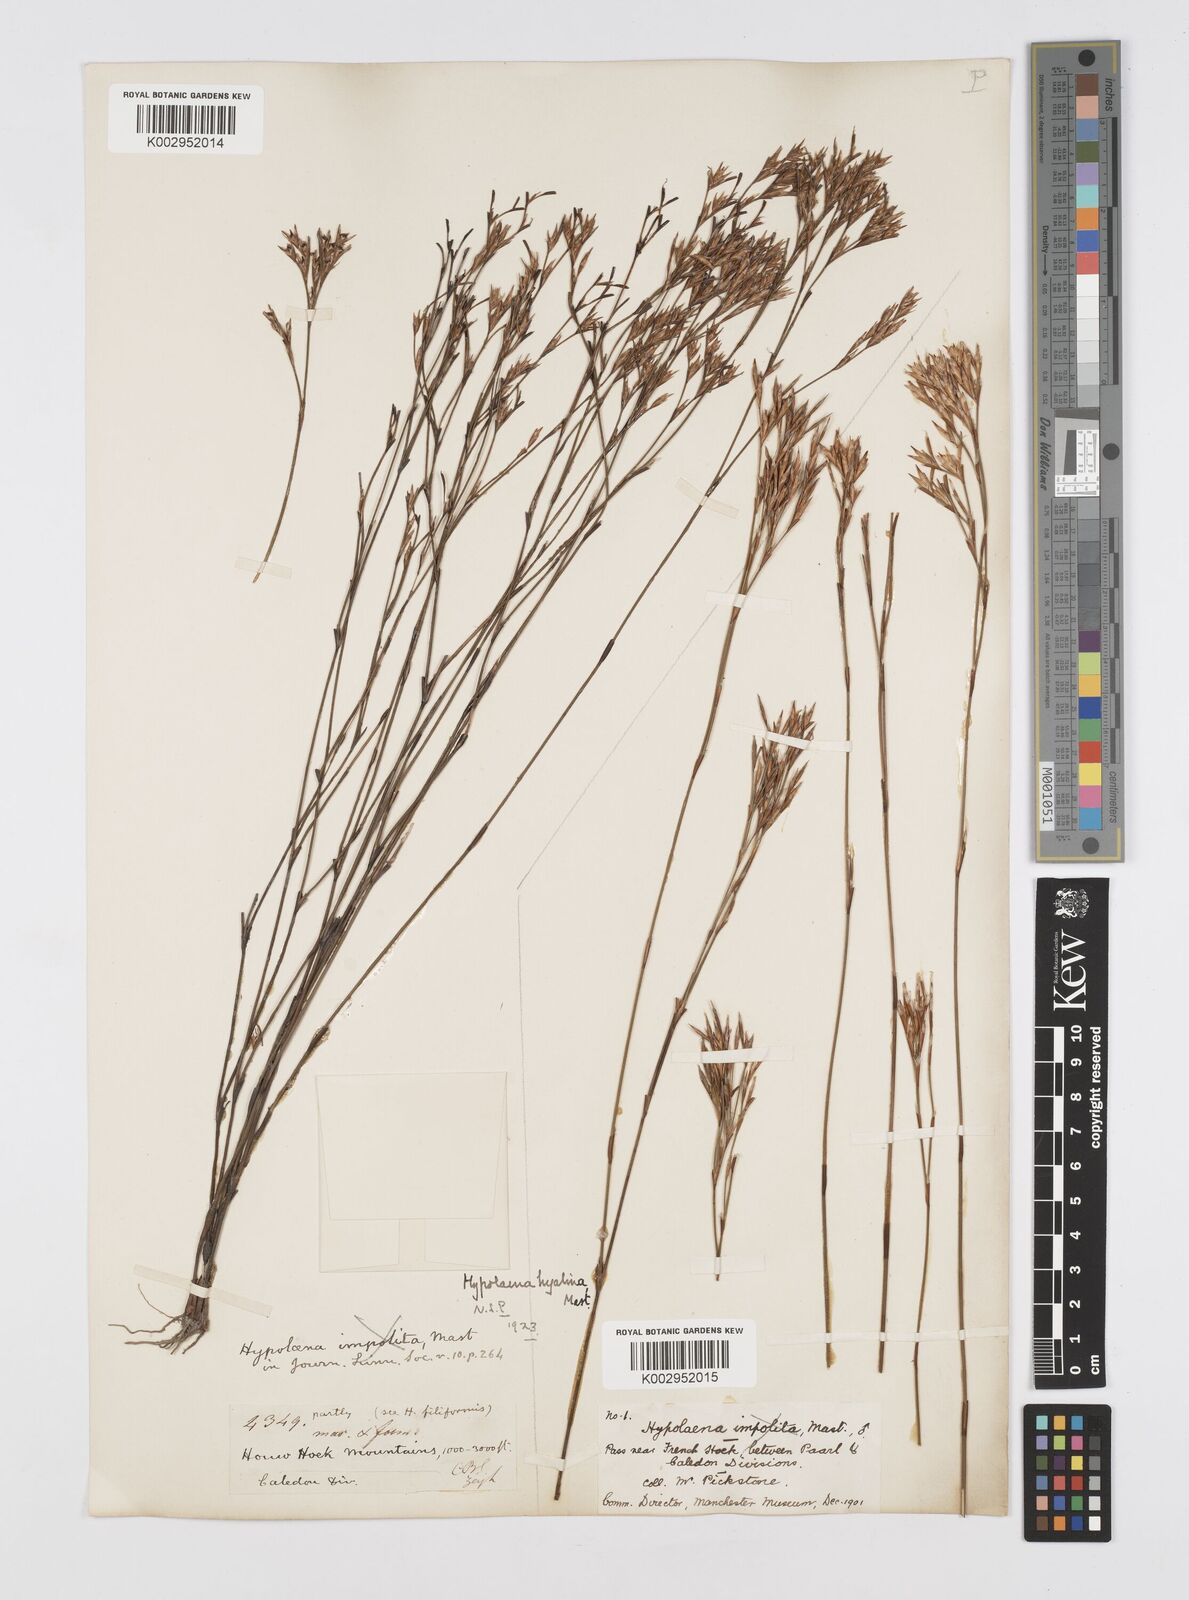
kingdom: Plantae
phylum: Tracheophyta
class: Liliopsida
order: Poales
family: Restionaceae
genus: Restio
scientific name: Restio hyalinus
